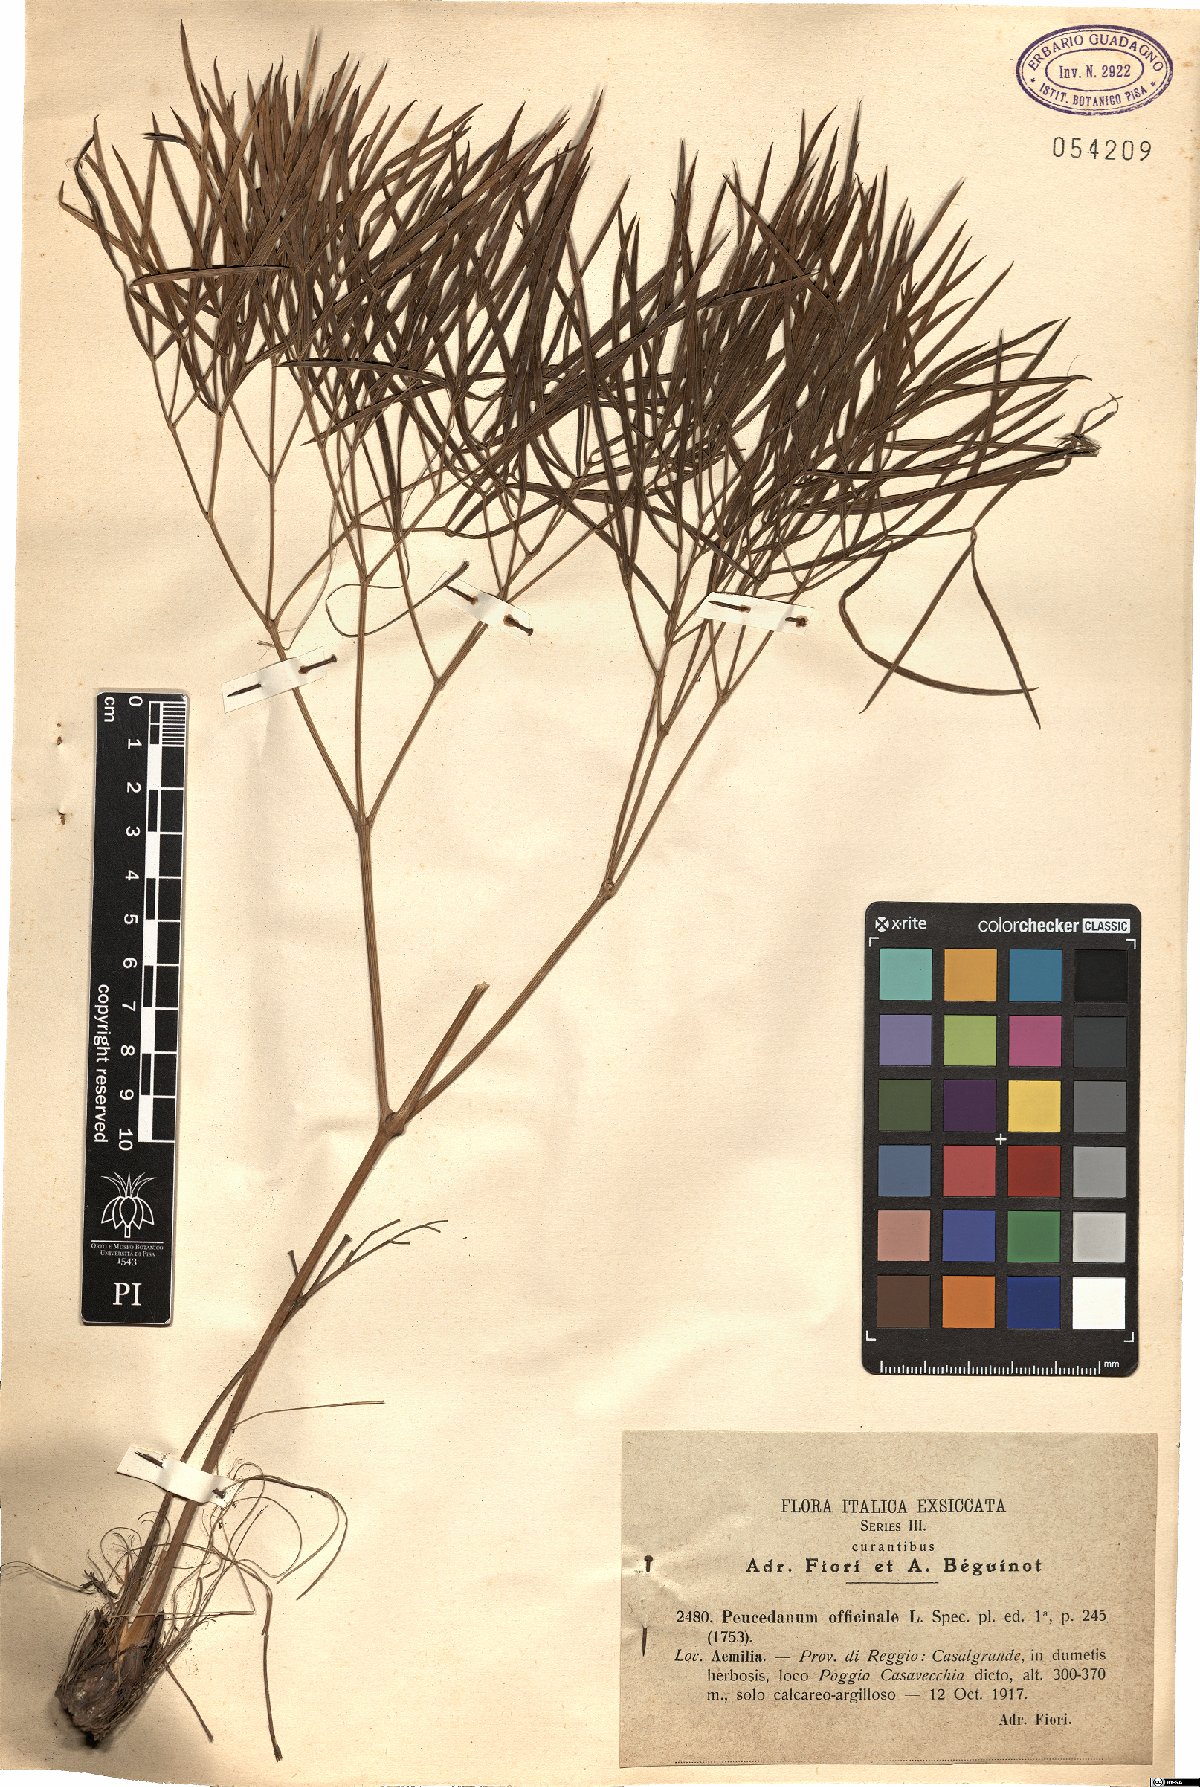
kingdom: Plantae
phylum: Tracheophyta
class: Magnoliopsida
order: Apiales
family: Apiaceae
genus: Peucedanum
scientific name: Peucedanum officinale
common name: Sulphurweed
